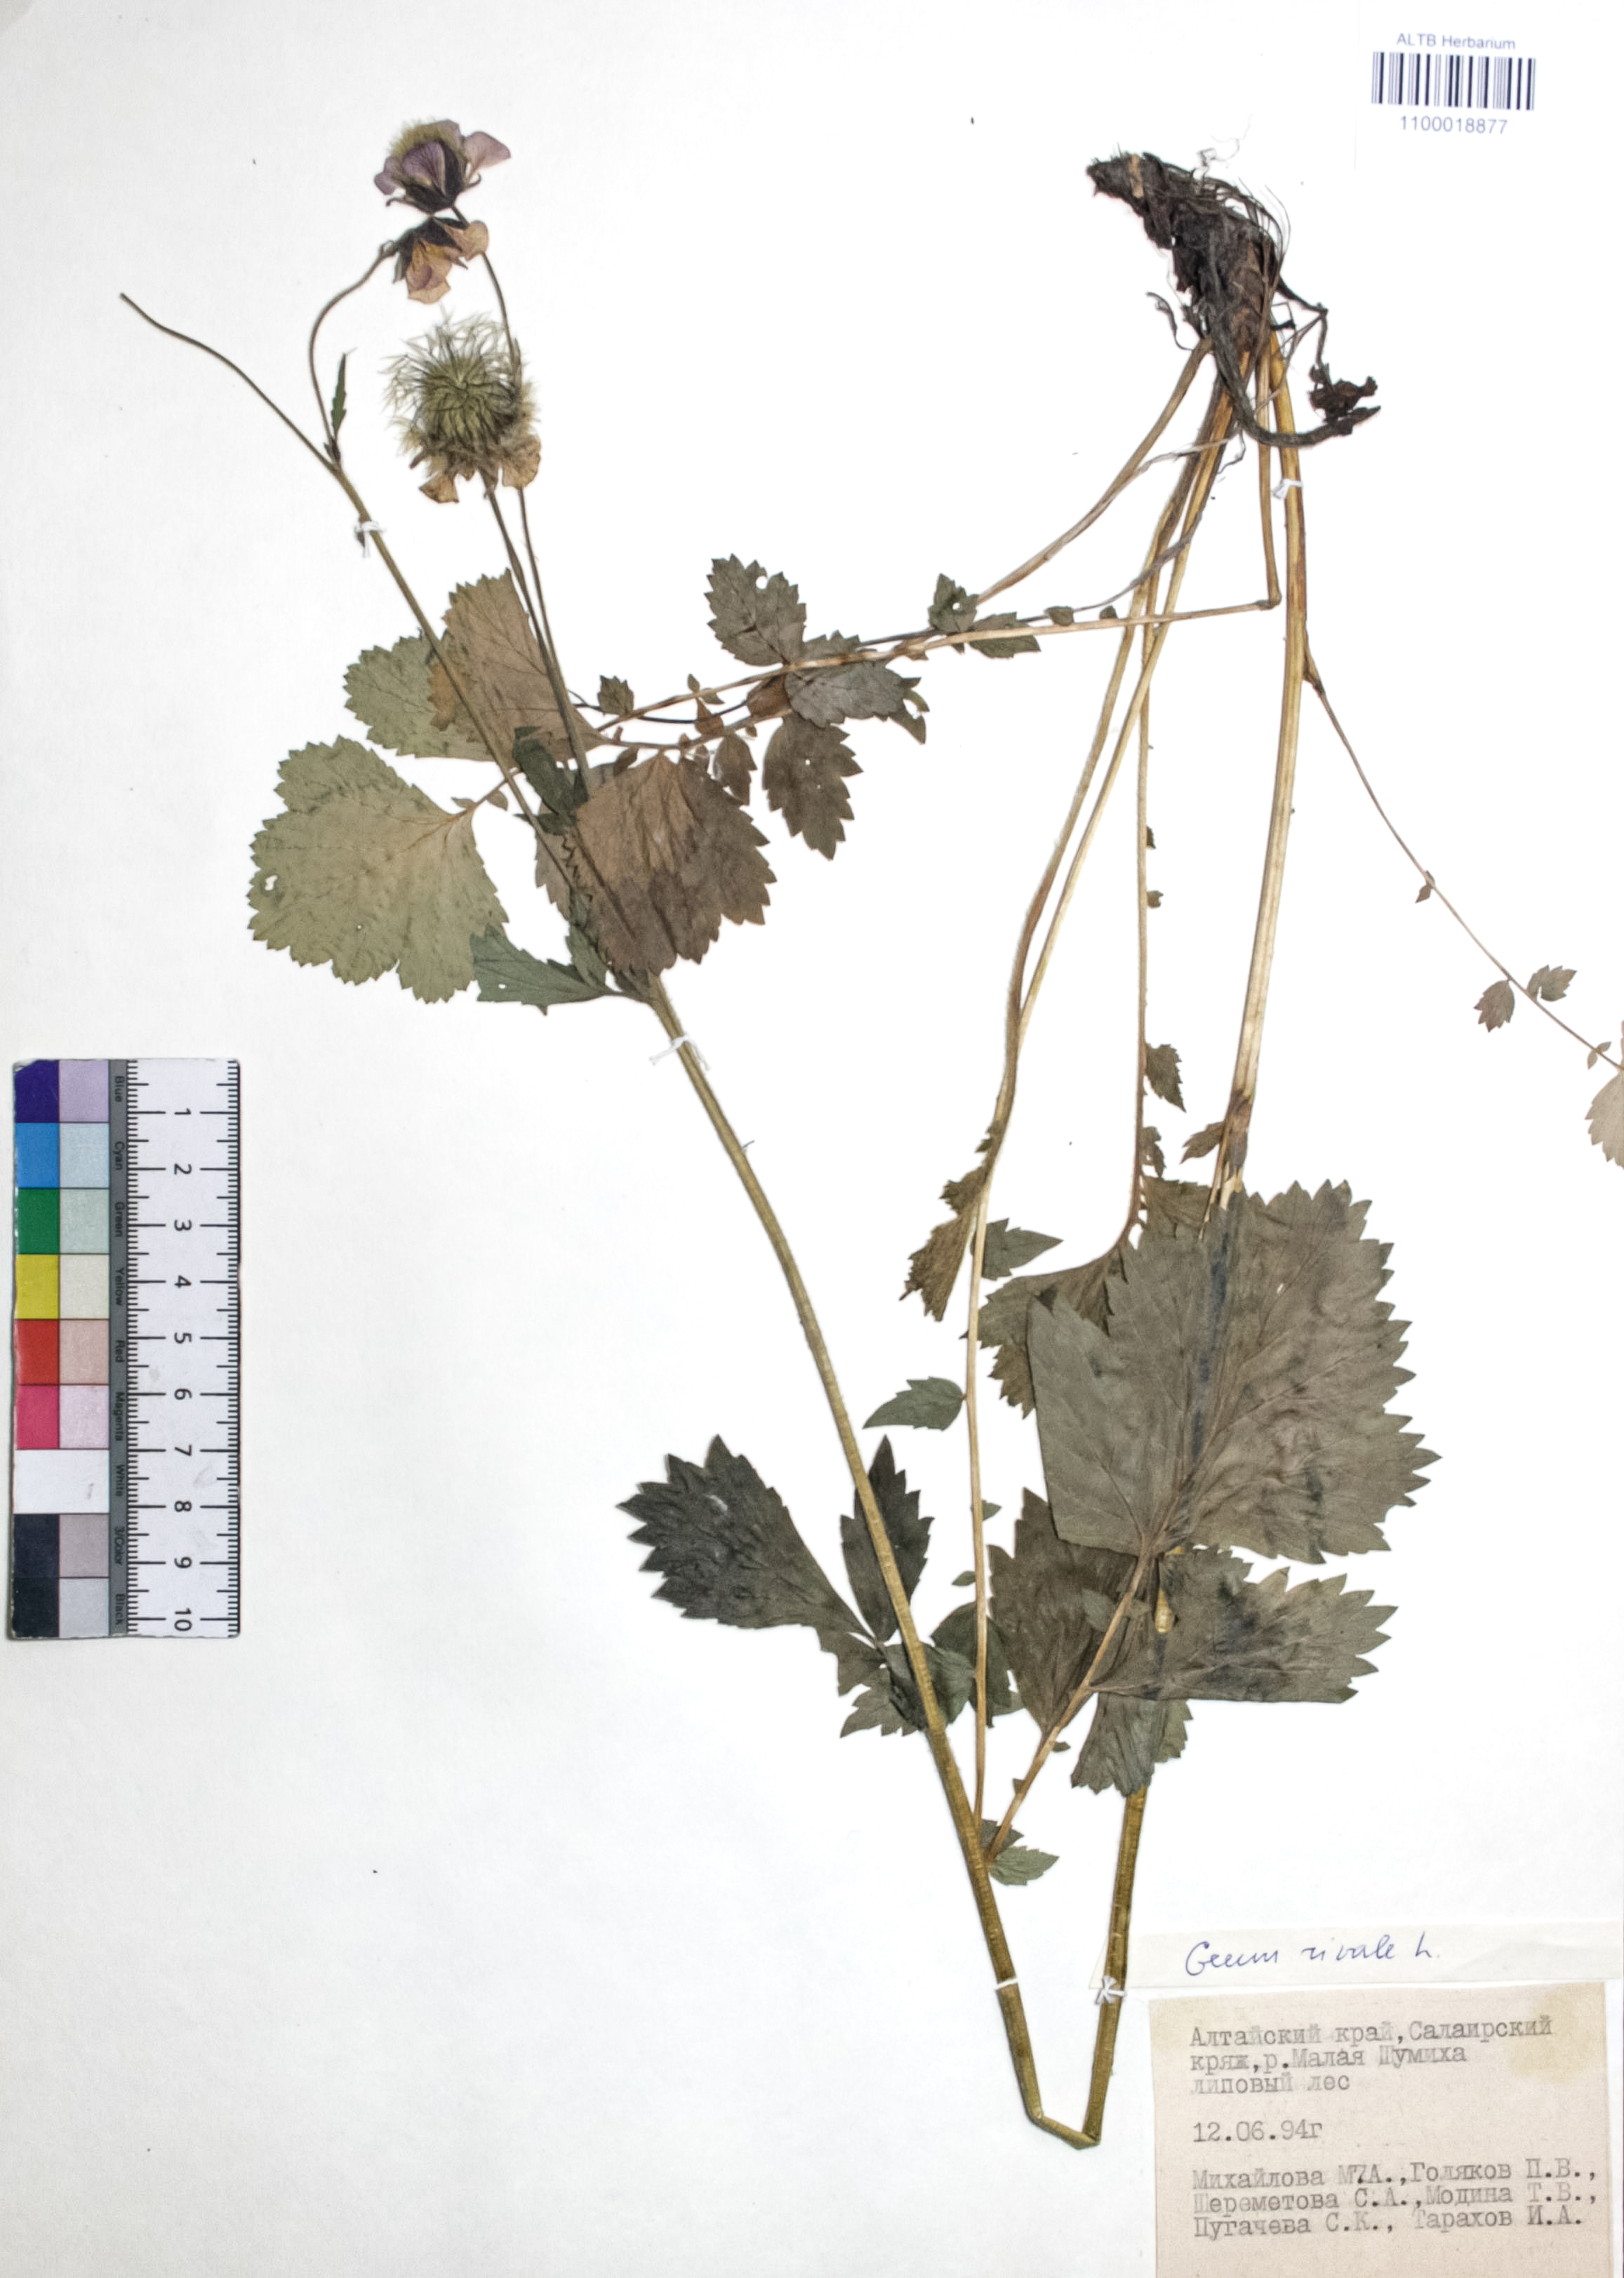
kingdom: Plantae
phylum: Tracheophyta
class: Magnoliopsida
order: Rosales
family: Rosaceae
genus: Geum
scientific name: Geum rivale
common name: Water avens
